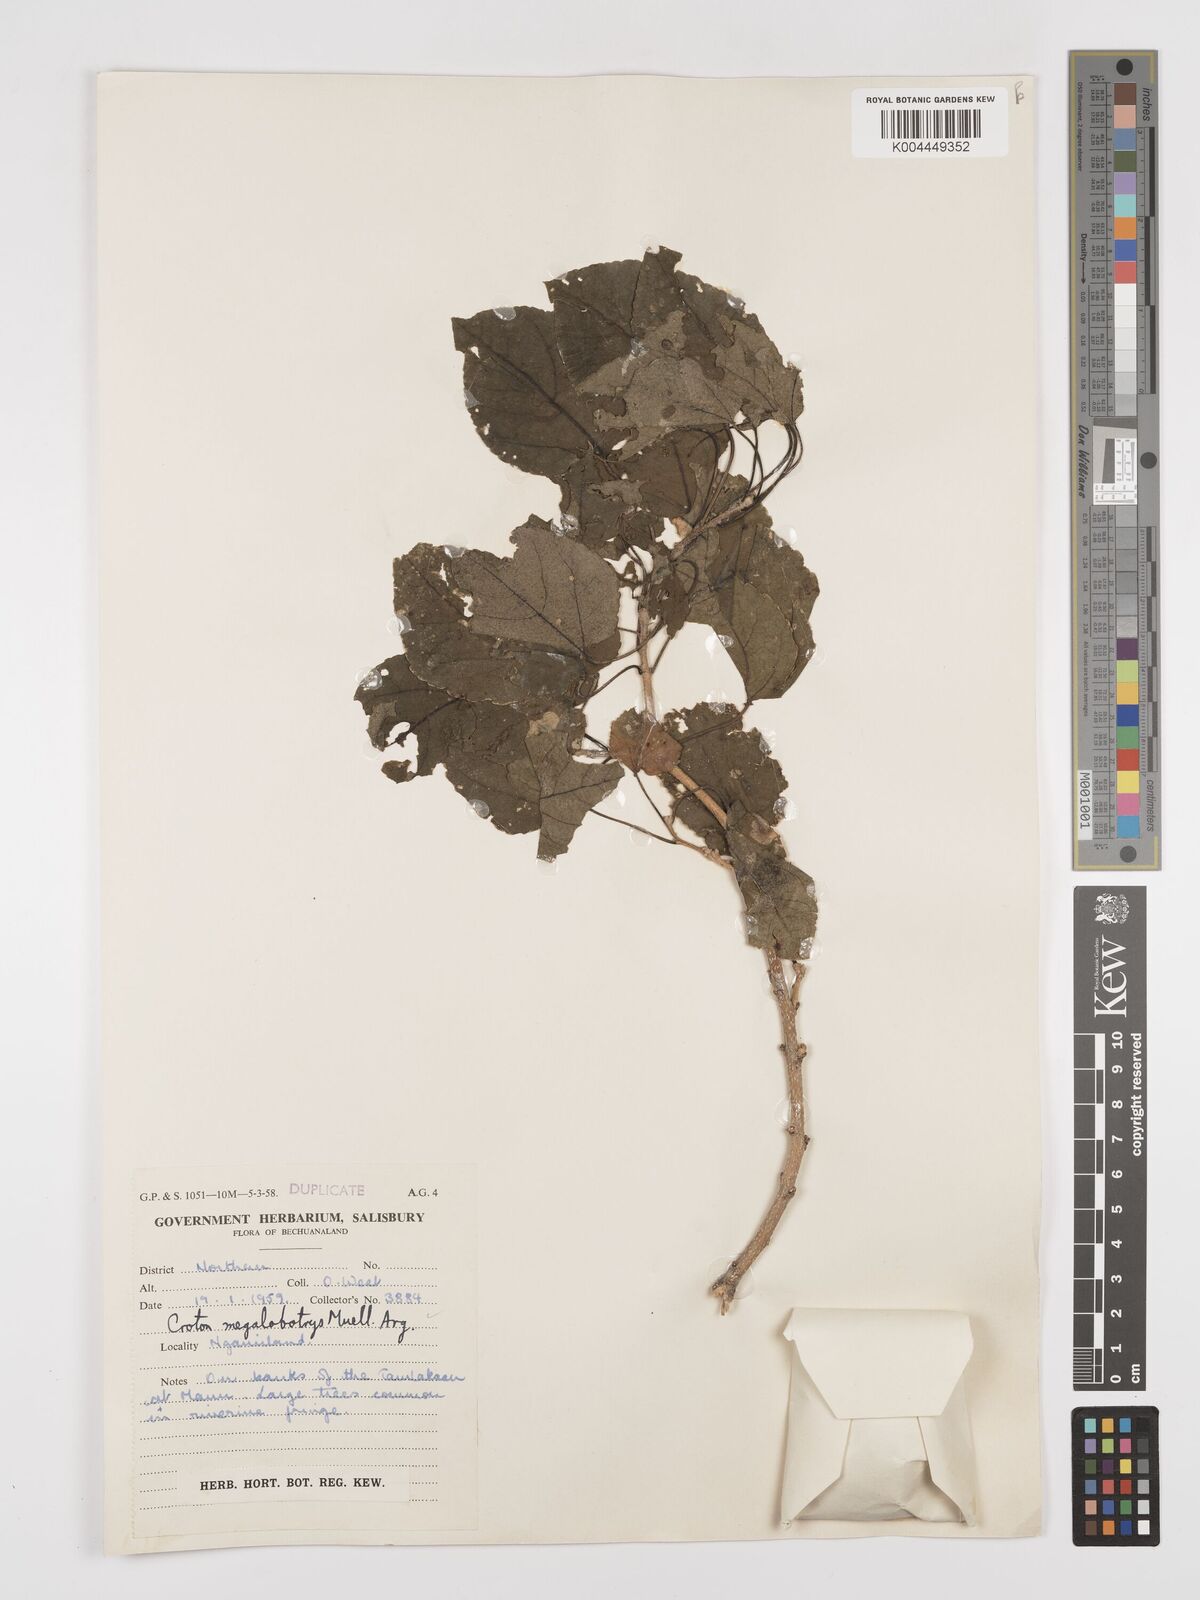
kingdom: Plantae
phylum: Tracheophyta
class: Magnoliopsida
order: Malpighiales
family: Euphorbiaceae
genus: Croton
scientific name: Croton megalobotrys
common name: Large fever berry
